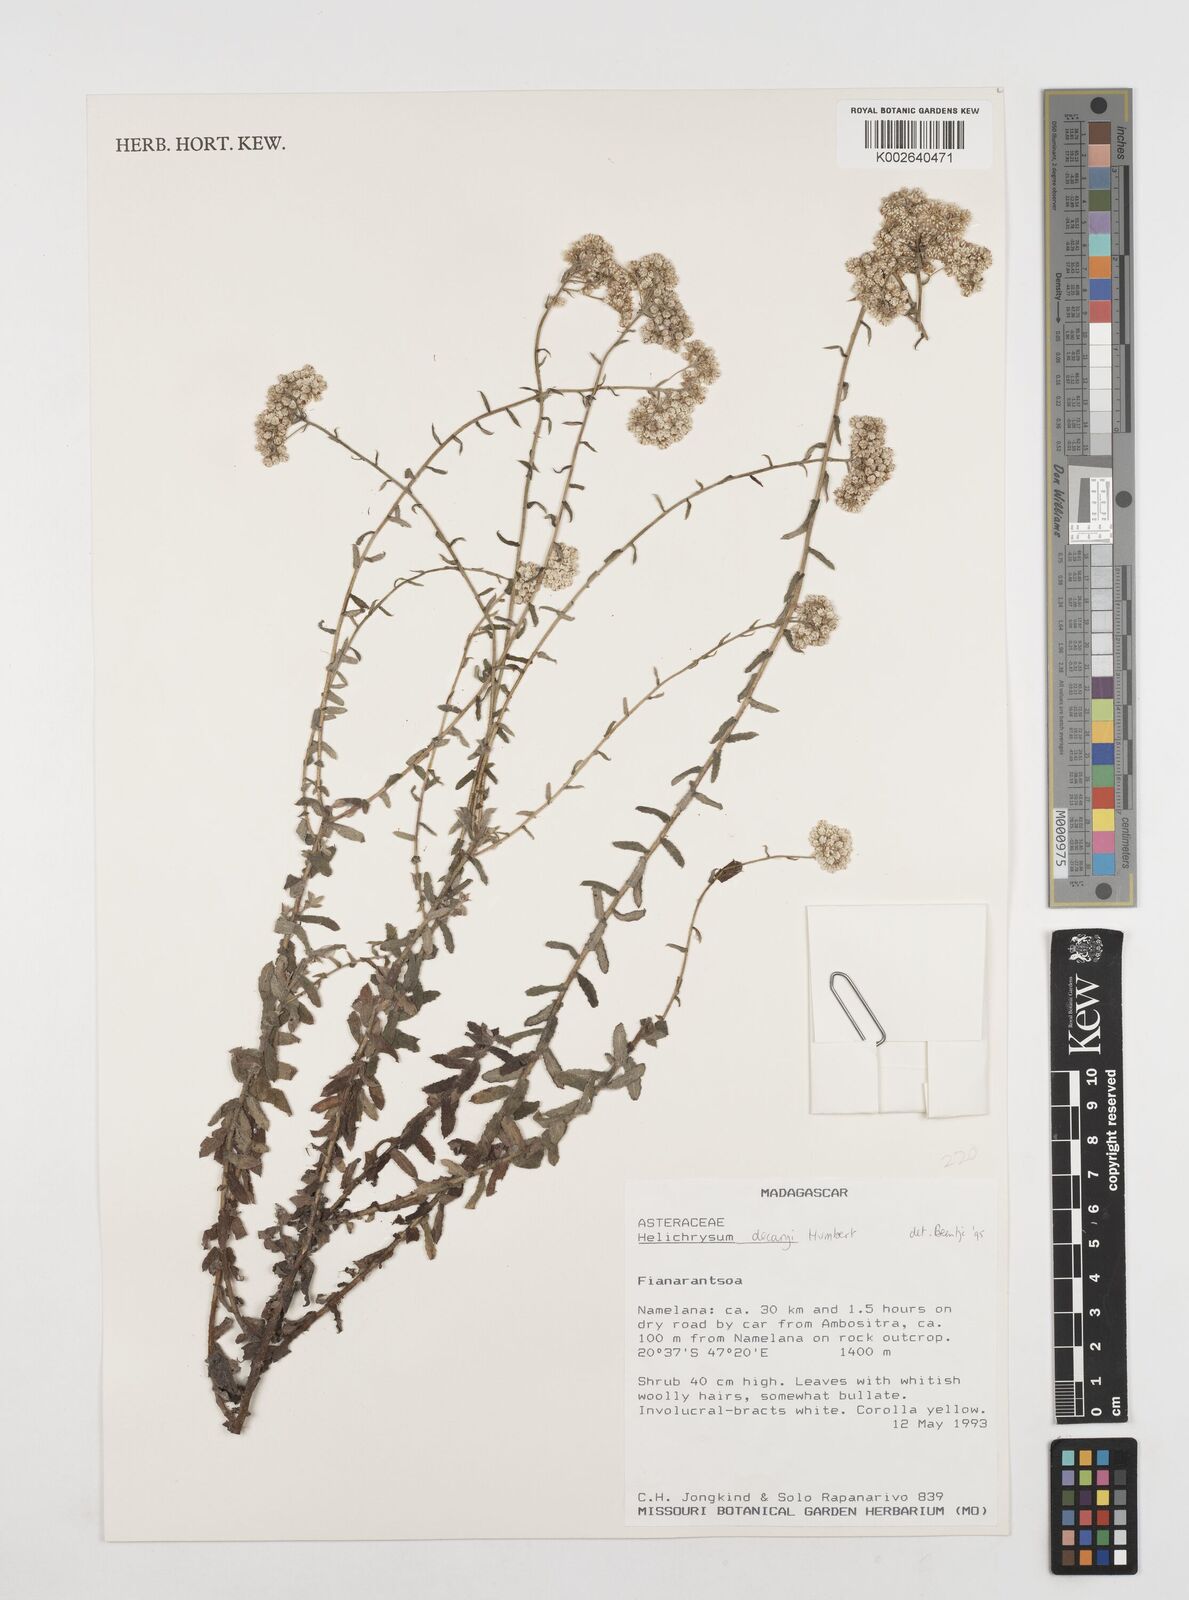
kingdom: Plantae
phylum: Tracheophyta
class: Magnoliopsida
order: Asterales
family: Asteraceae
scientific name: Asteraceae
